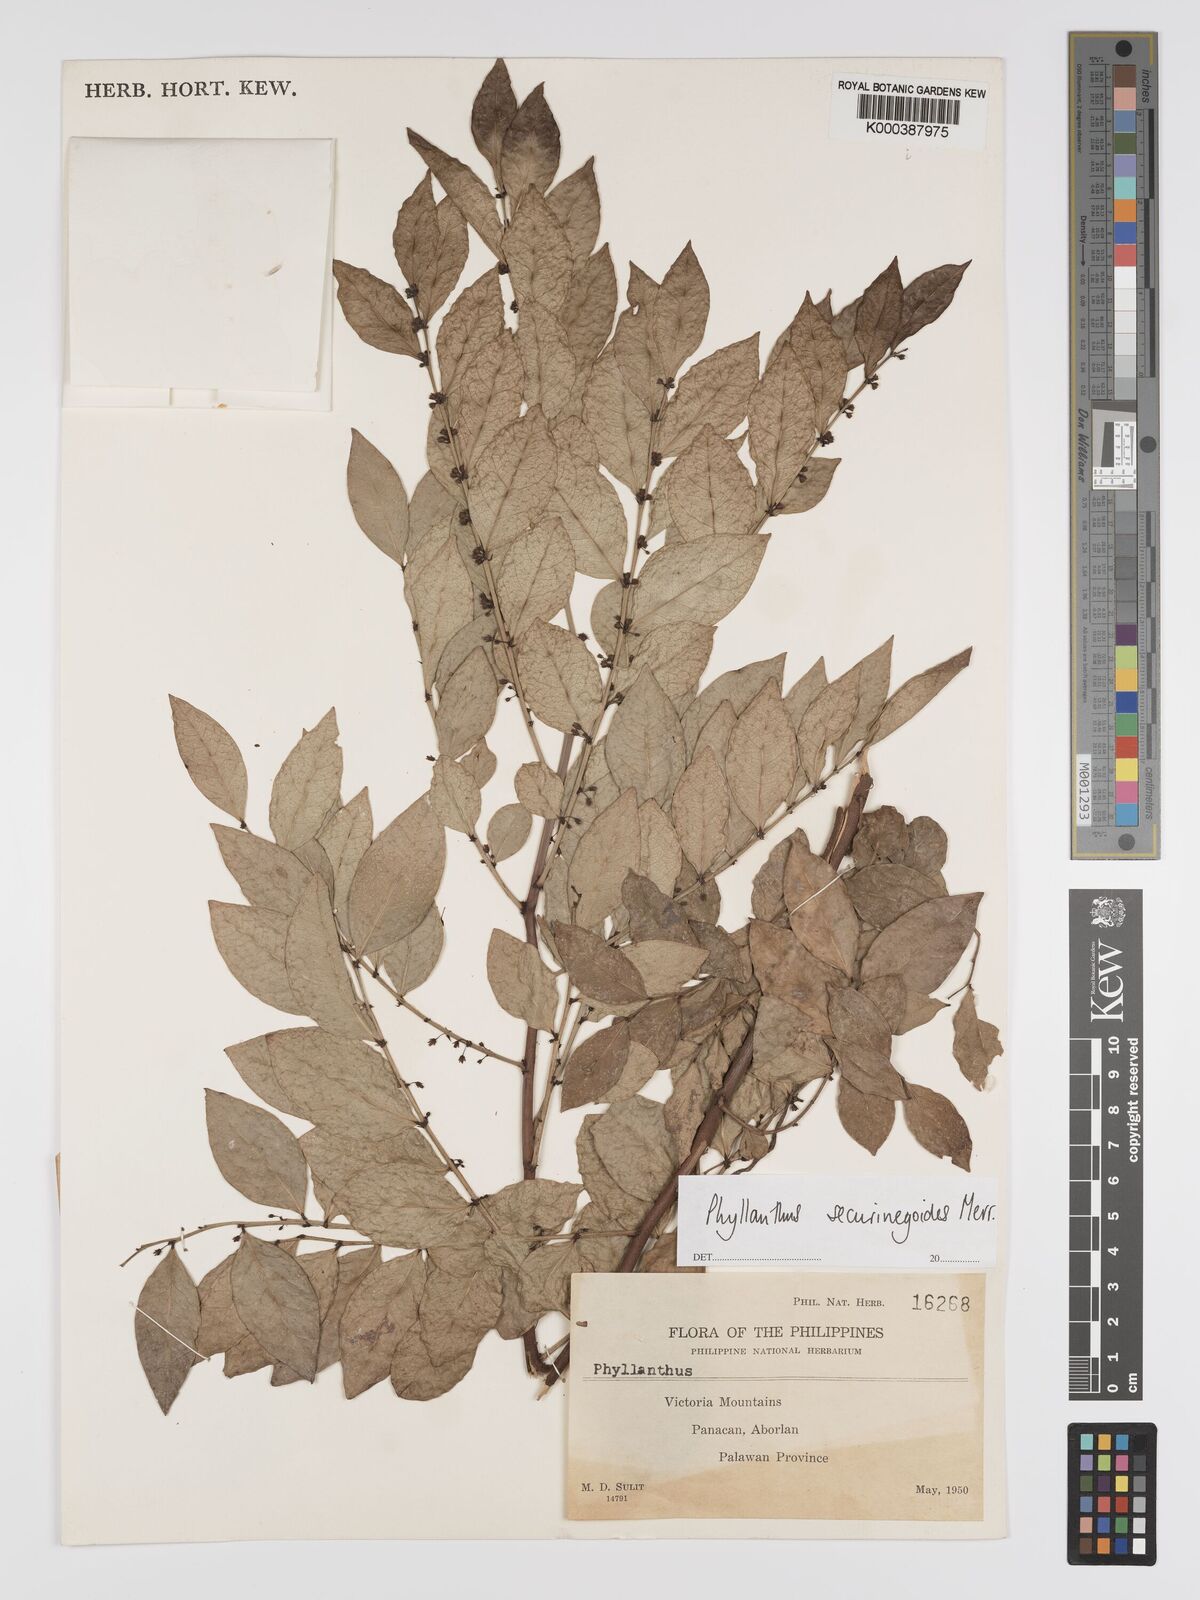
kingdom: Plantae
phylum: Tracheophyta
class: Magnoliopsida
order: Malpighiales
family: Phyllanthaceae
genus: Phyllanthus
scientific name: Phyllanthus securinegoides
